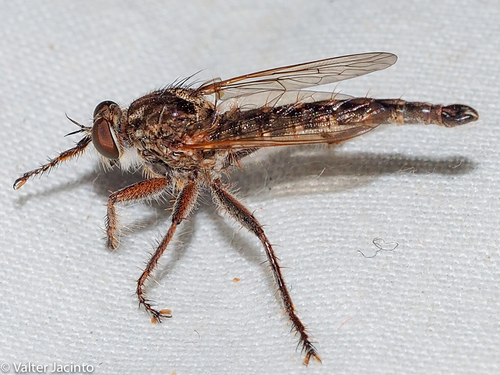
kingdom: Animalia
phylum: Arthropoda
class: Insecta
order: Diptera
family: Asilidae
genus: Neoepitriptus
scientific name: Neoepitriptus
